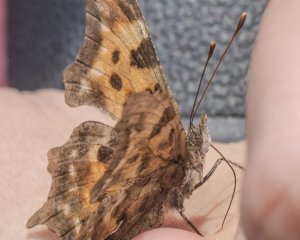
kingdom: Animalia
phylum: Arthropoda
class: Insecta
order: Lepidoptera
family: Nymphalidae
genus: Polygonia
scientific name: Polygonia faunus
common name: Green Comma
